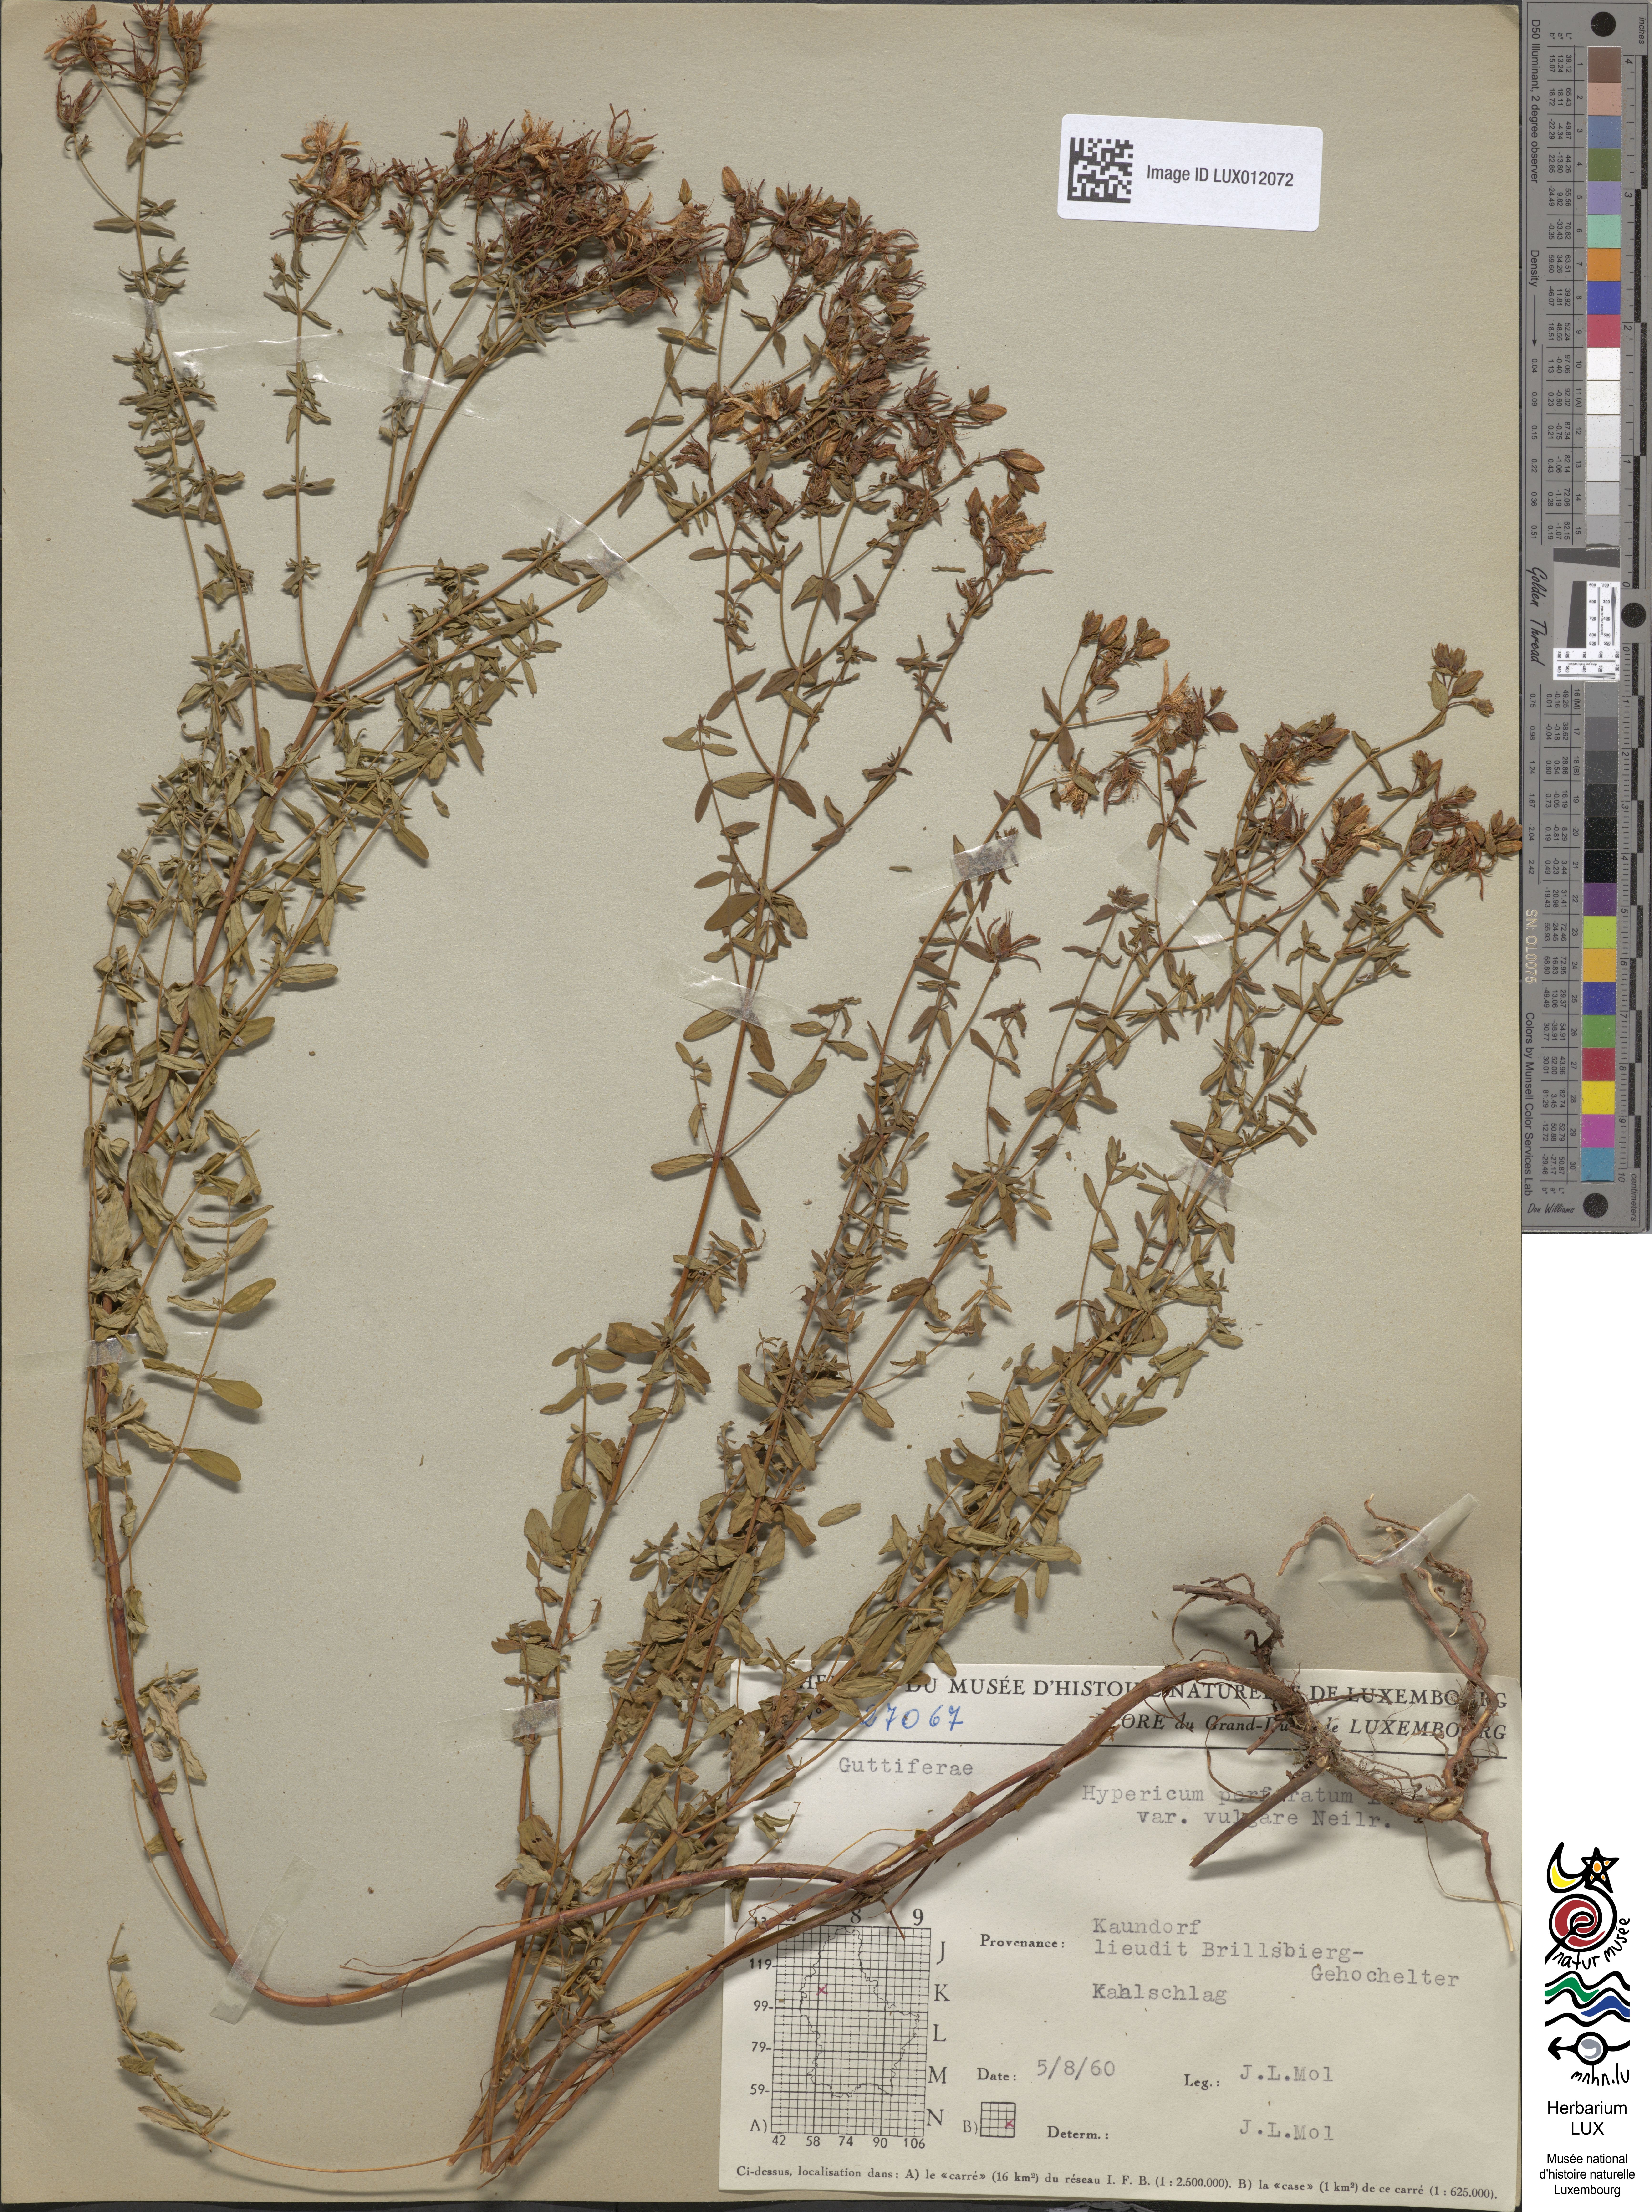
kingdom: Plantae
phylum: Tracheophyta
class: Magnoliopsida
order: Malpighiales
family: Hypericaceae
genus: Hypericum
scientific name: Hypericum perforatum
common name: Common st. johnswort
